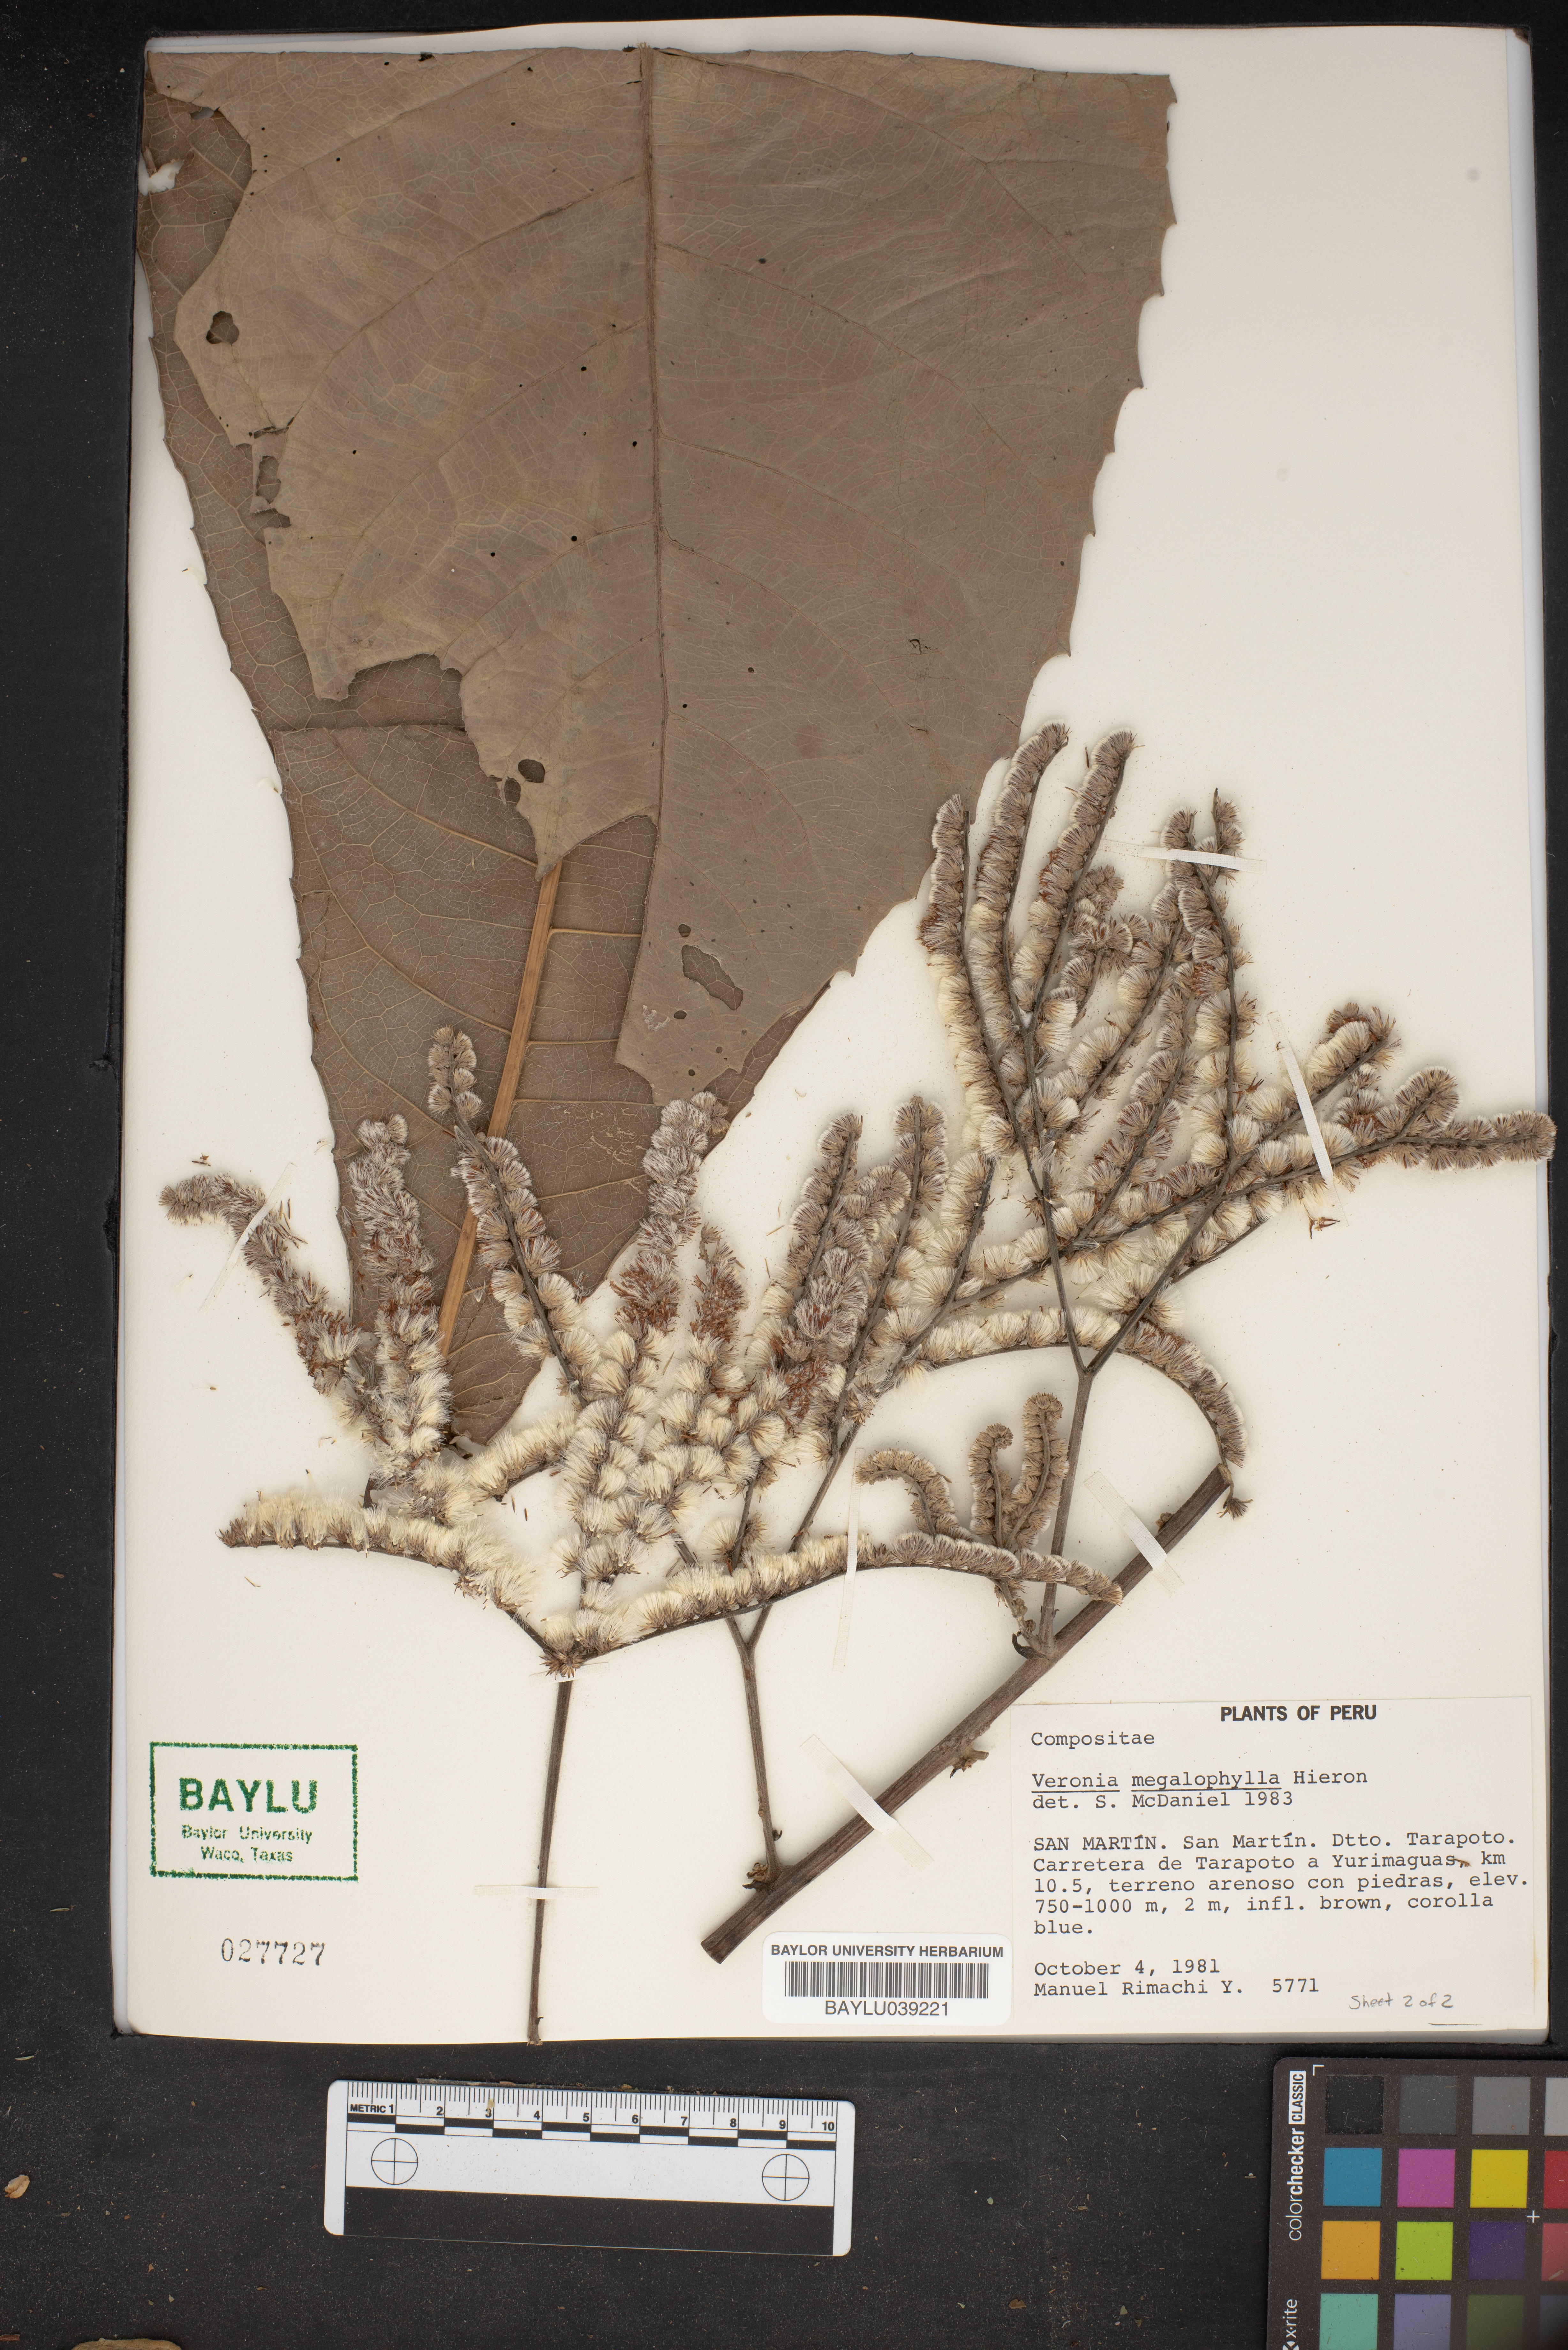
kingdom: Plantae
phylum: Tracheophyta
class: Magnoliopsida
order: Asterales
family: Asteraceae
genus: Eirmocephala
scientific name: Eirmocephala megaphylla
